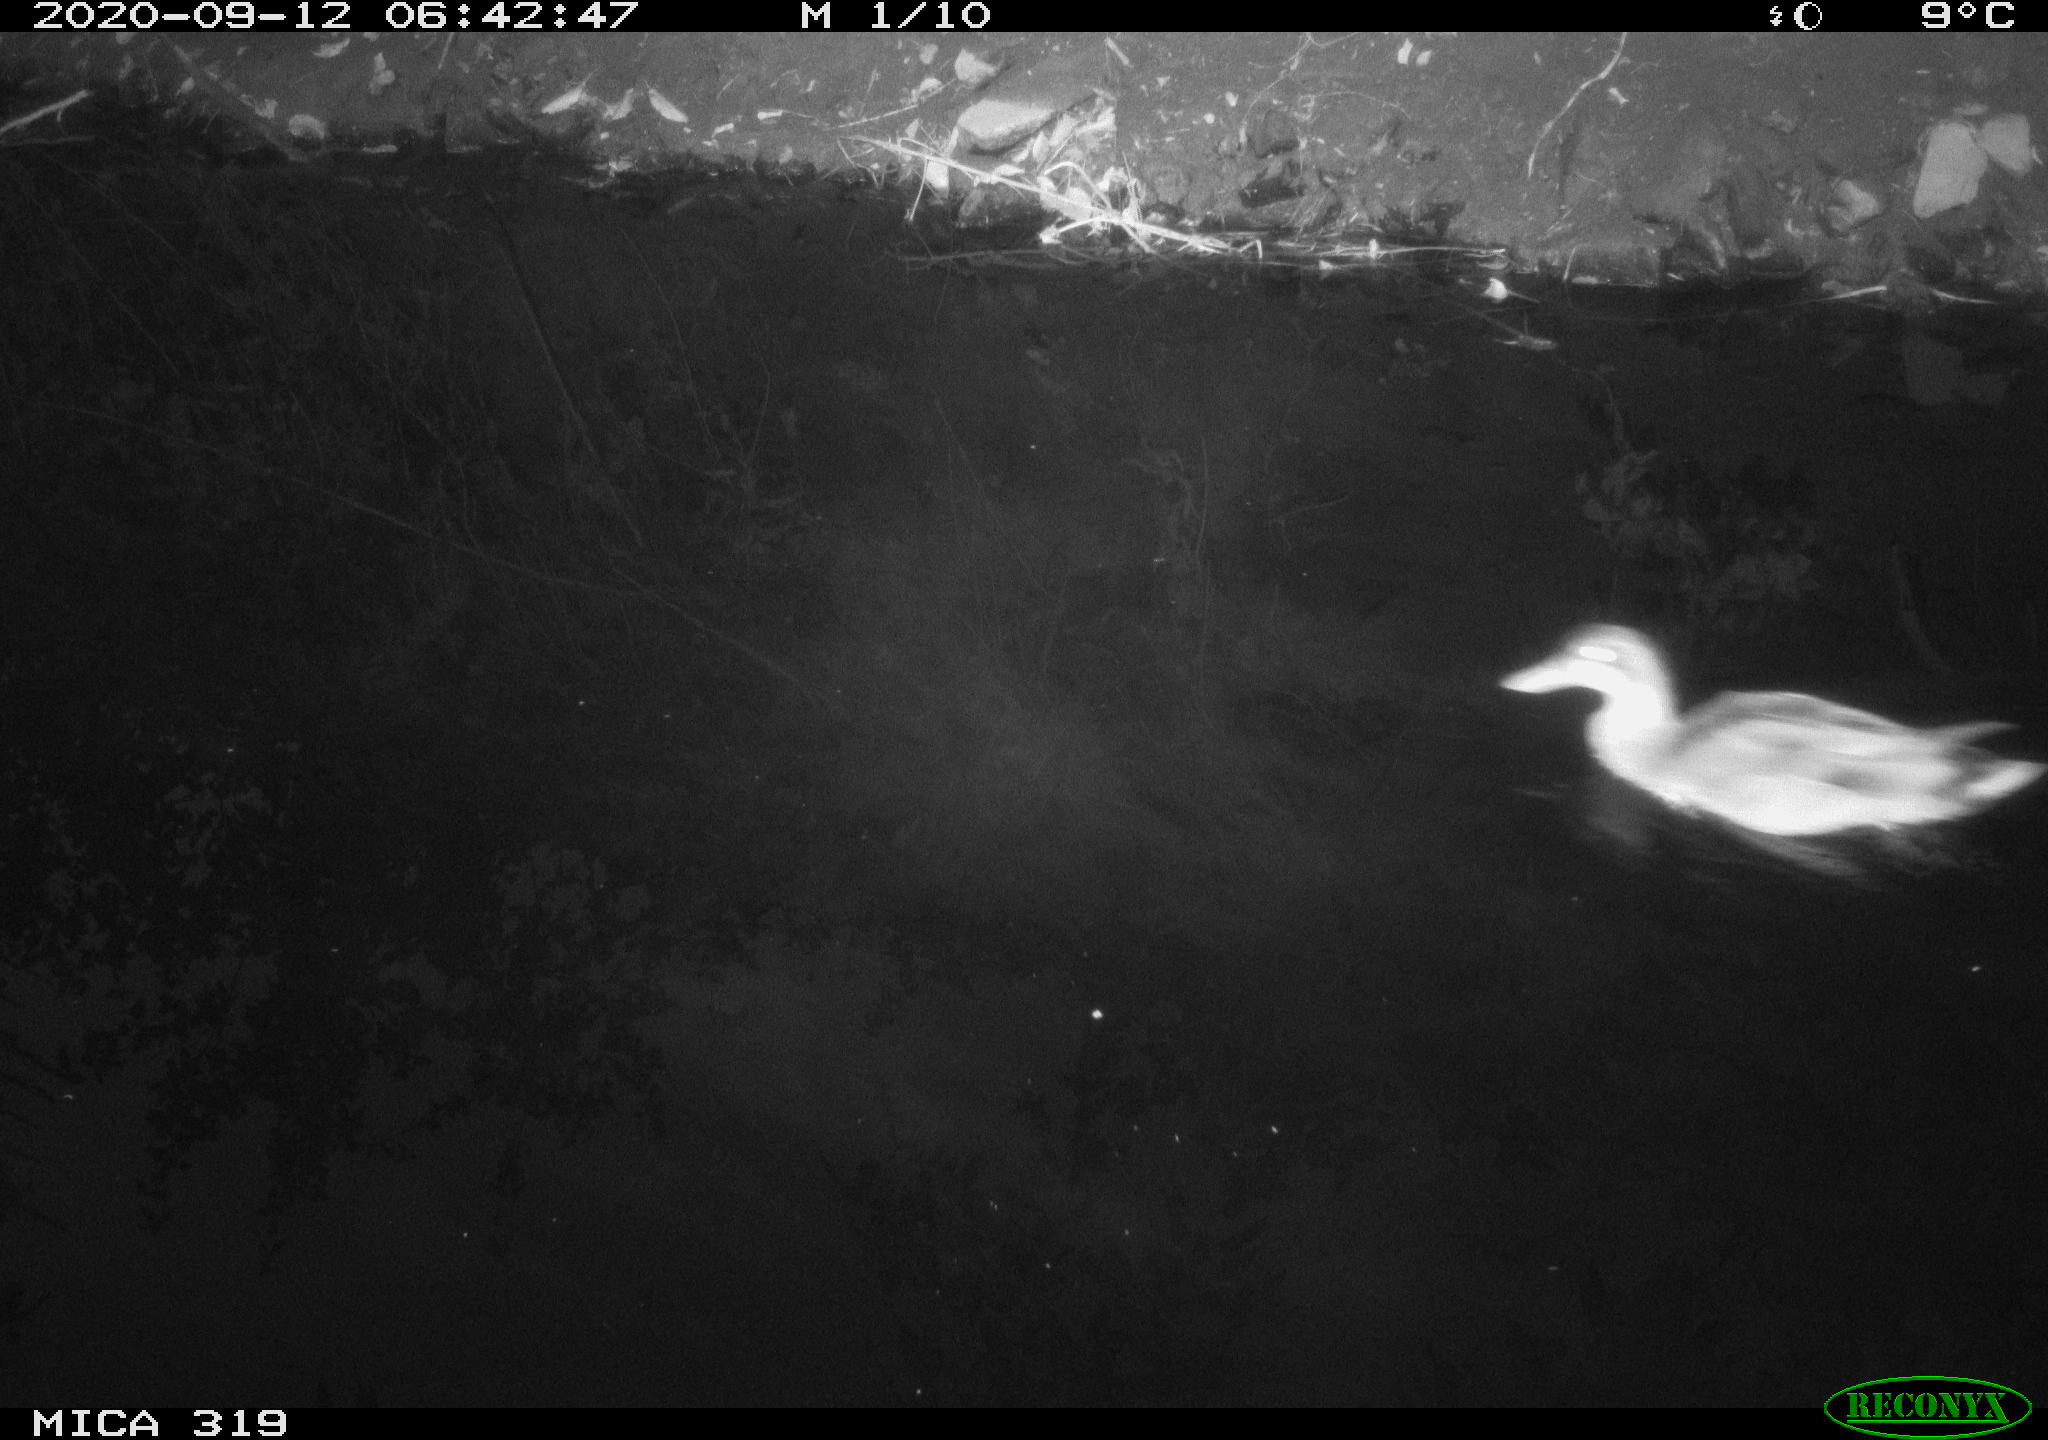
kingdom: Animalia
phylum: Chordata
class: Aves
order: Anseriformes
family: Anatidae
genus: Anas
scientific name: Anas platyrhynchos
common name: Mallard
